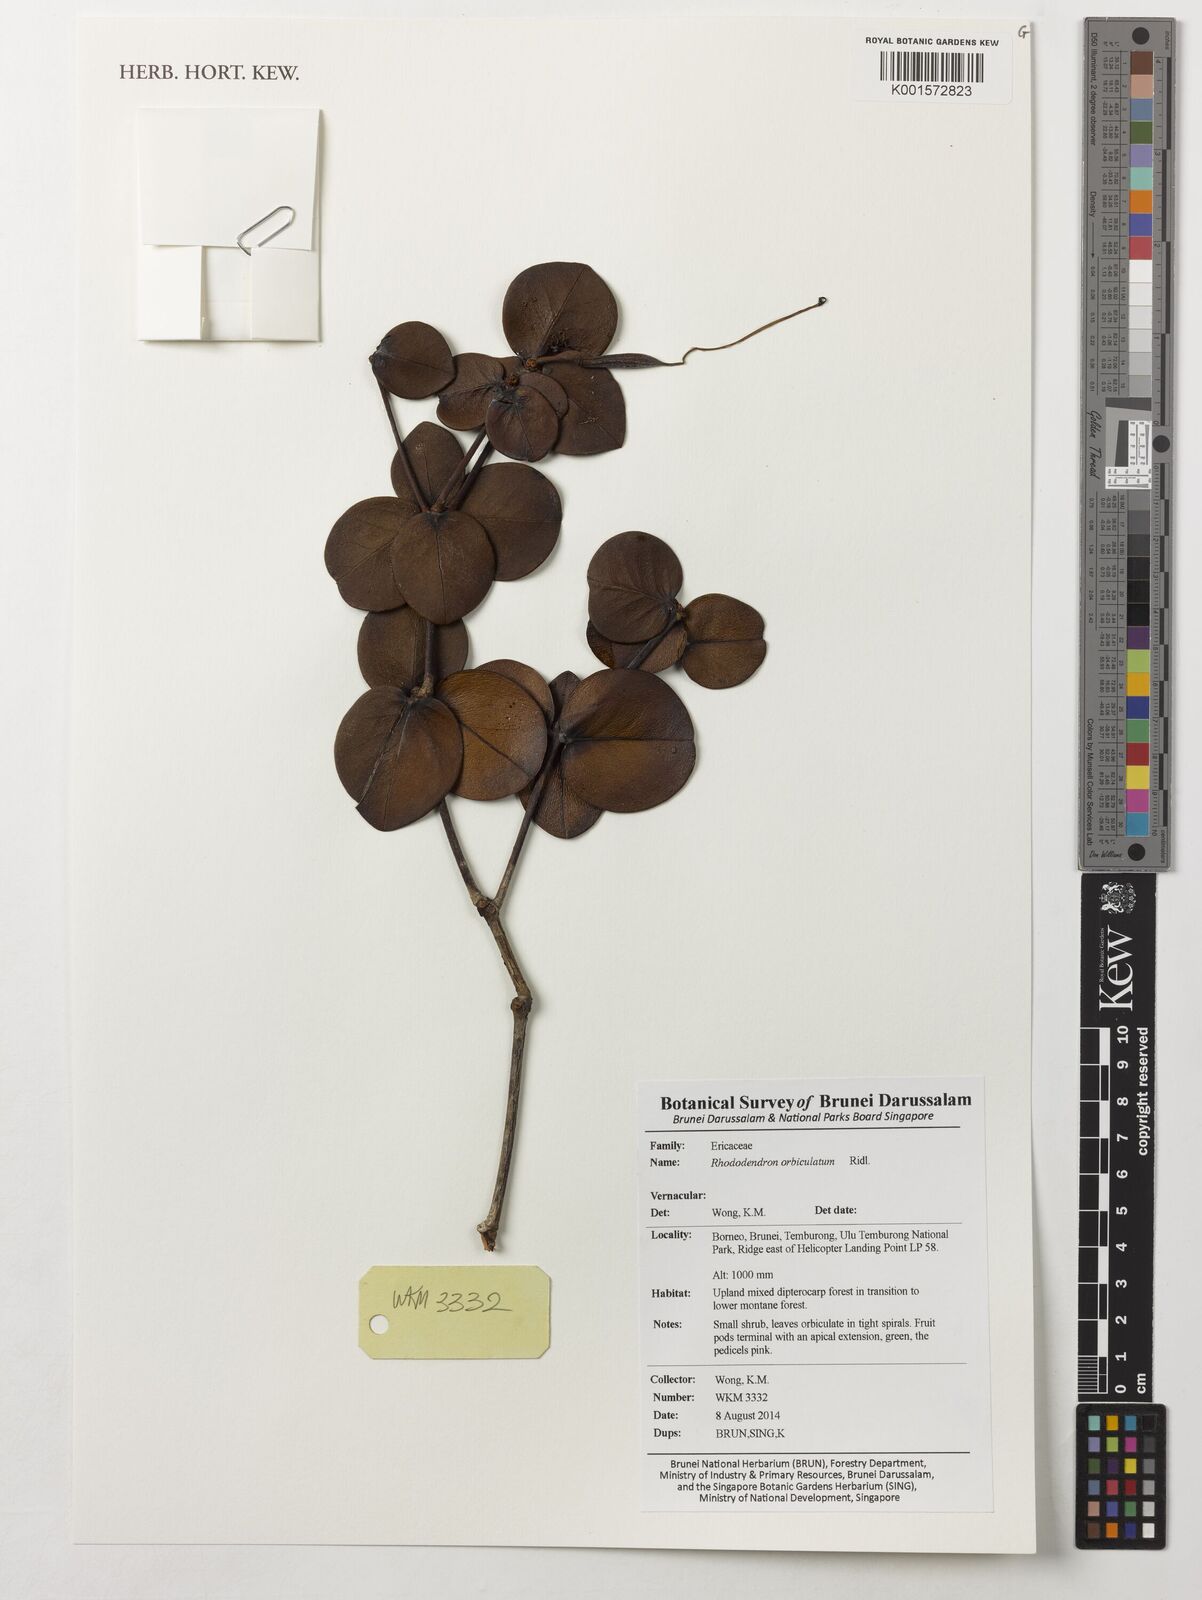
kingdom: Plantae
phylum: Tracheophyta
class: Magnoliopsida
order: Ericales
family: Ericaceae
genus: Rhododendron
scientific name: Rhododendron orbiculatum
